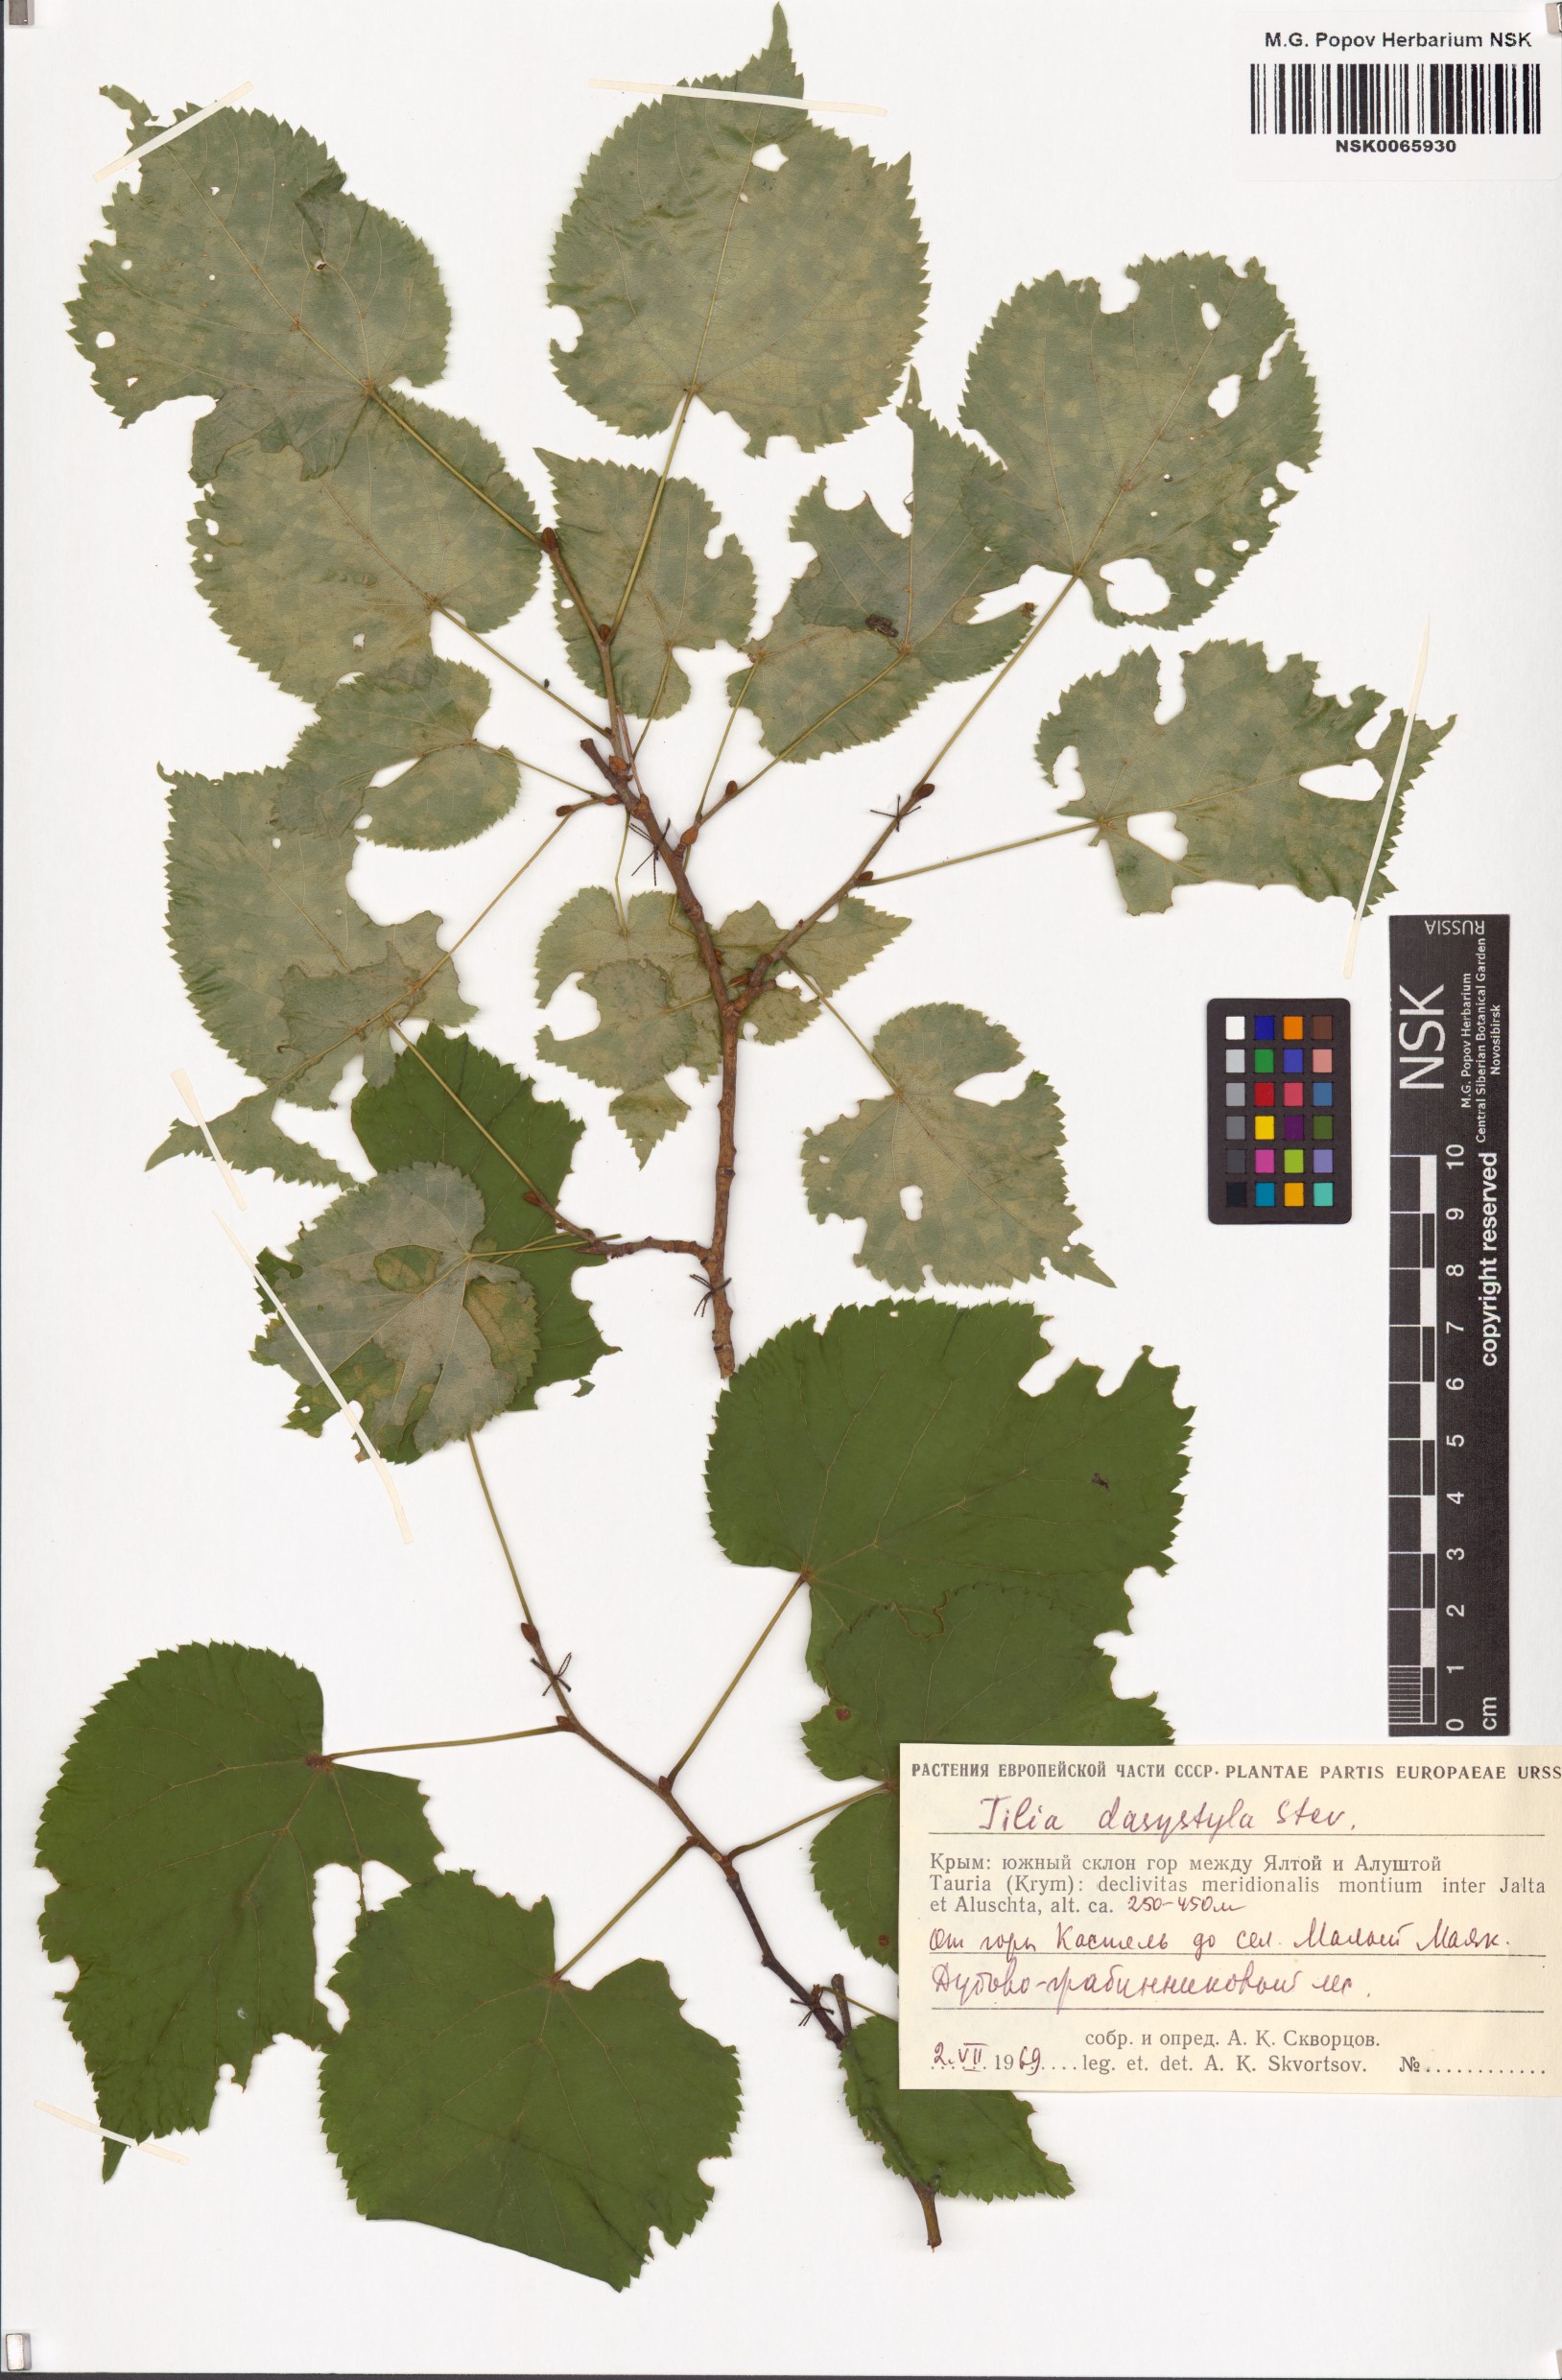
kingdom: Plantae
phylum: Tracheophyta
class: Magnoliopsida
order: Malvales
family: Malvaceae
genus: Tilia
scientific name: Tilia dasystyla
